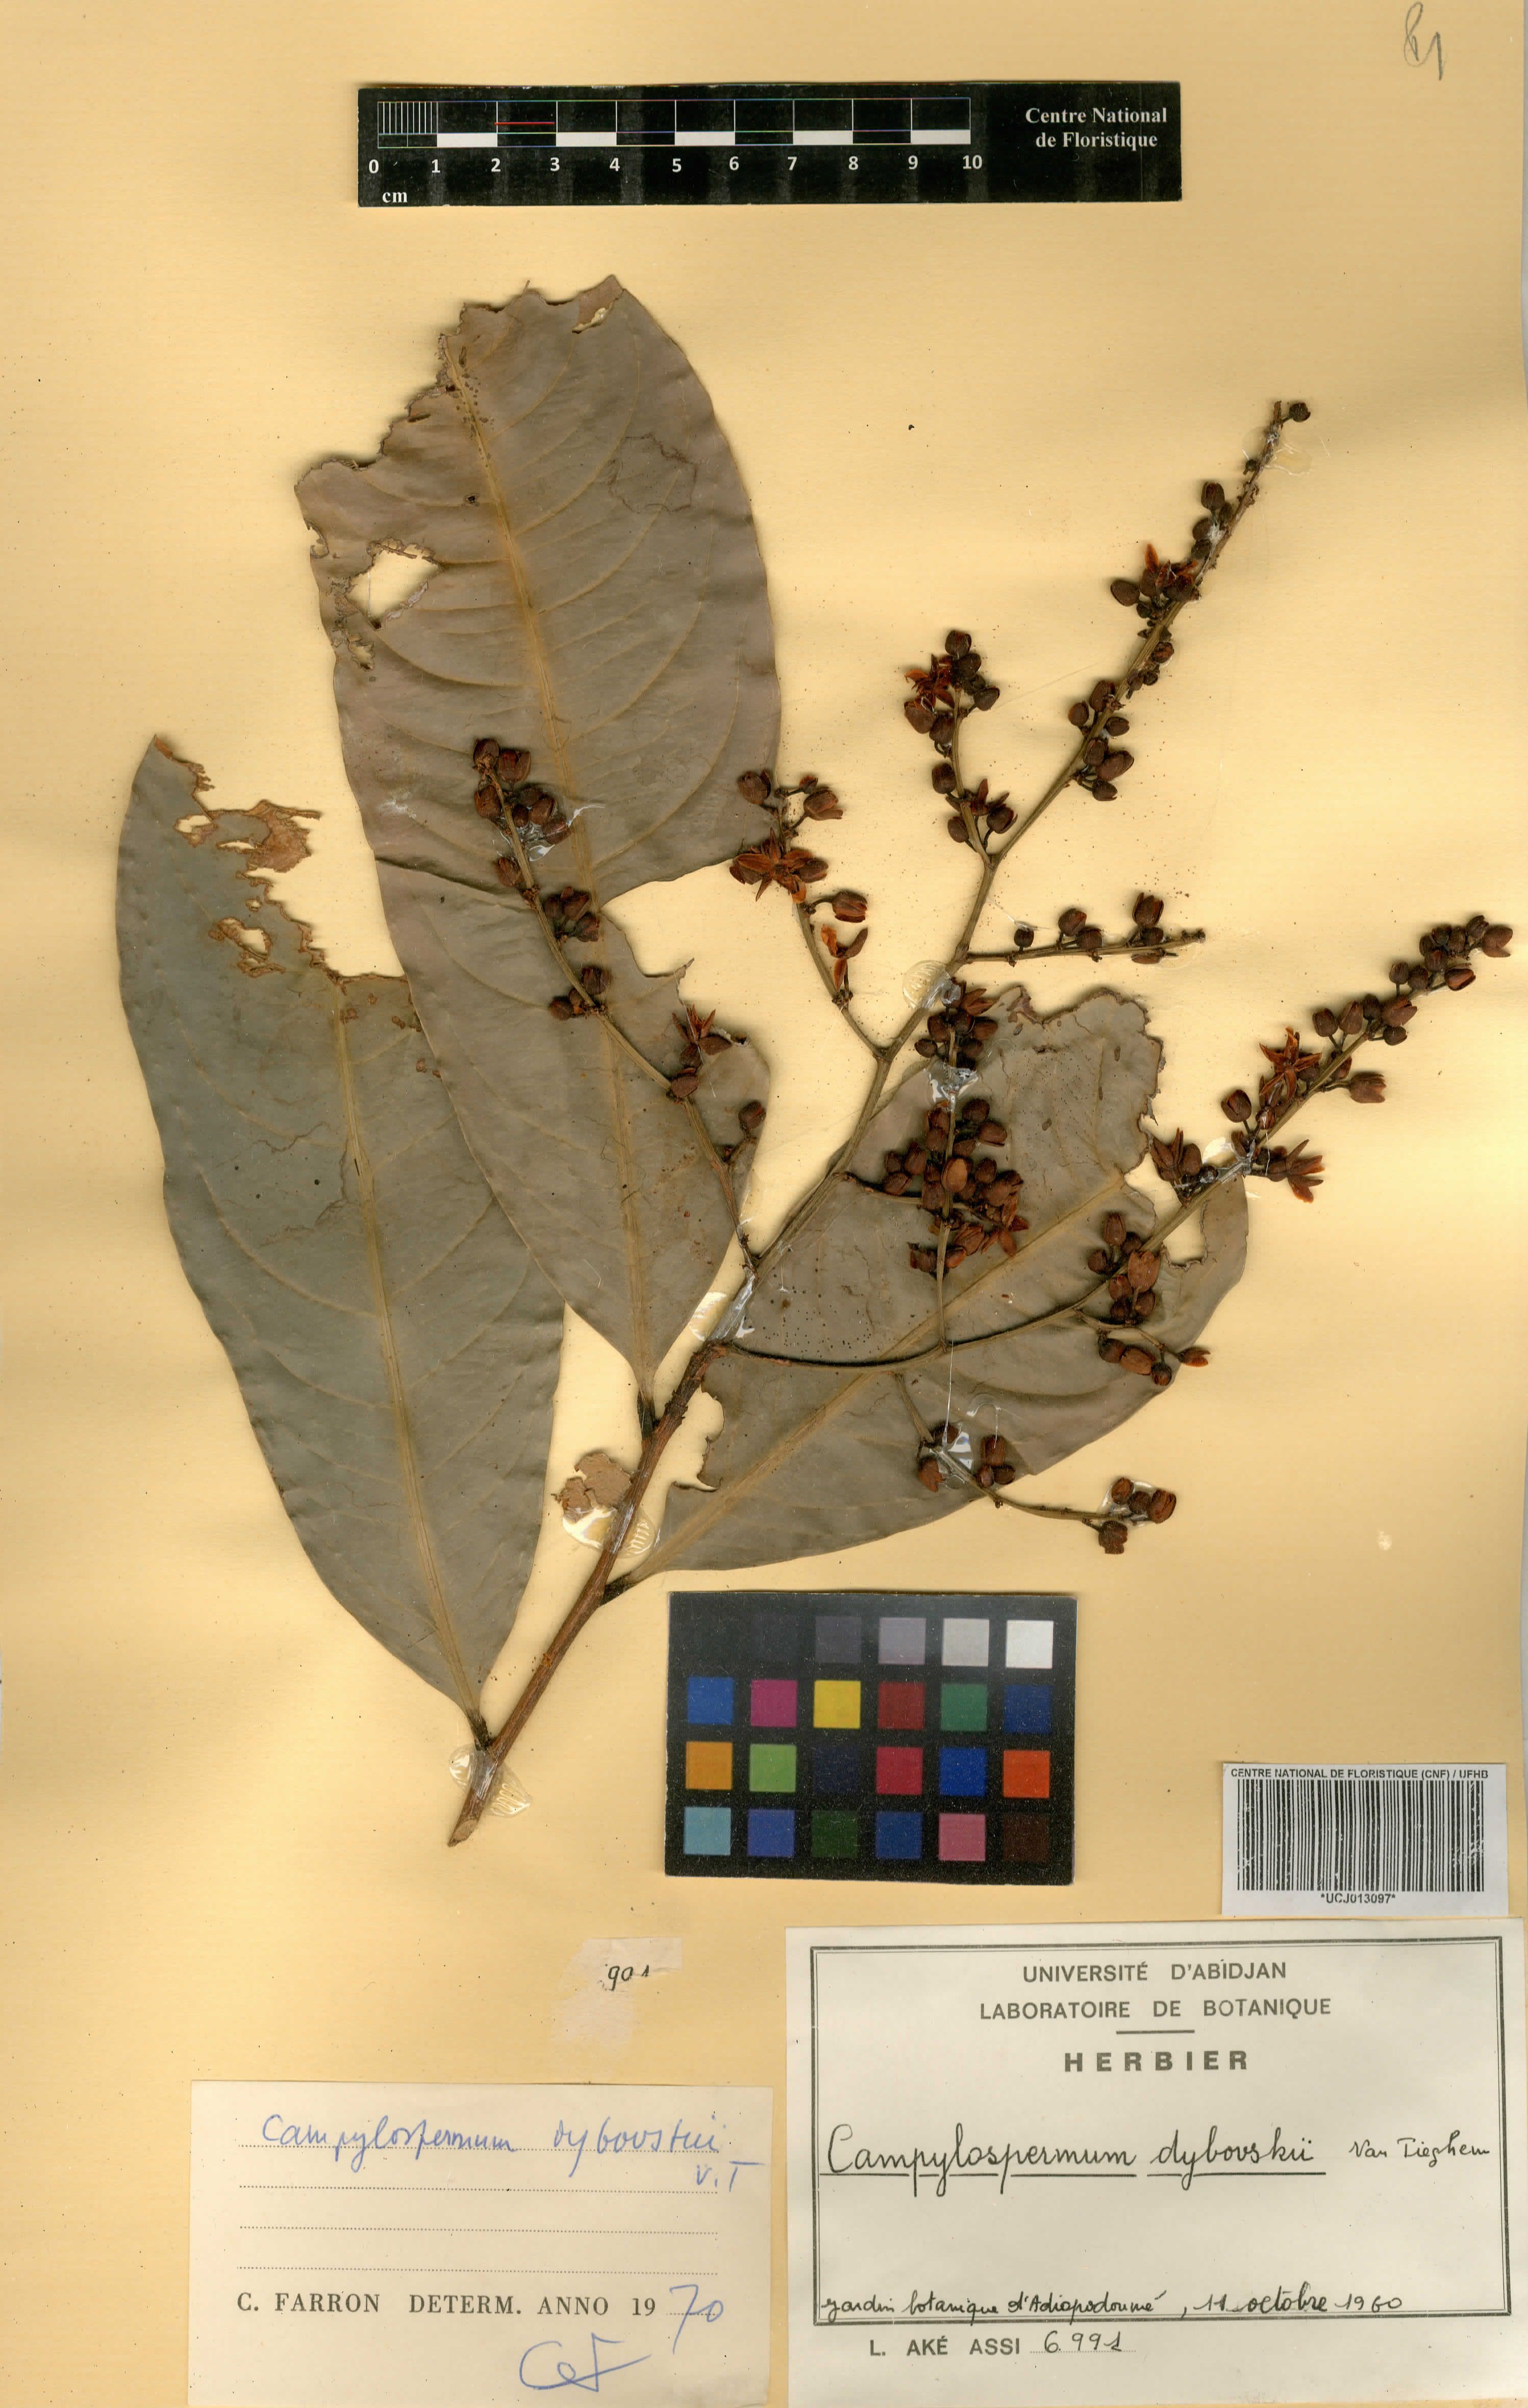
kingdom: Plantae
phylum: Tracheophyta
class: Magnoliopsida
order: Malpighiales
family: Ochnaceae
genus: Campylospermum
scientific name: Campylospermum dybovskii
